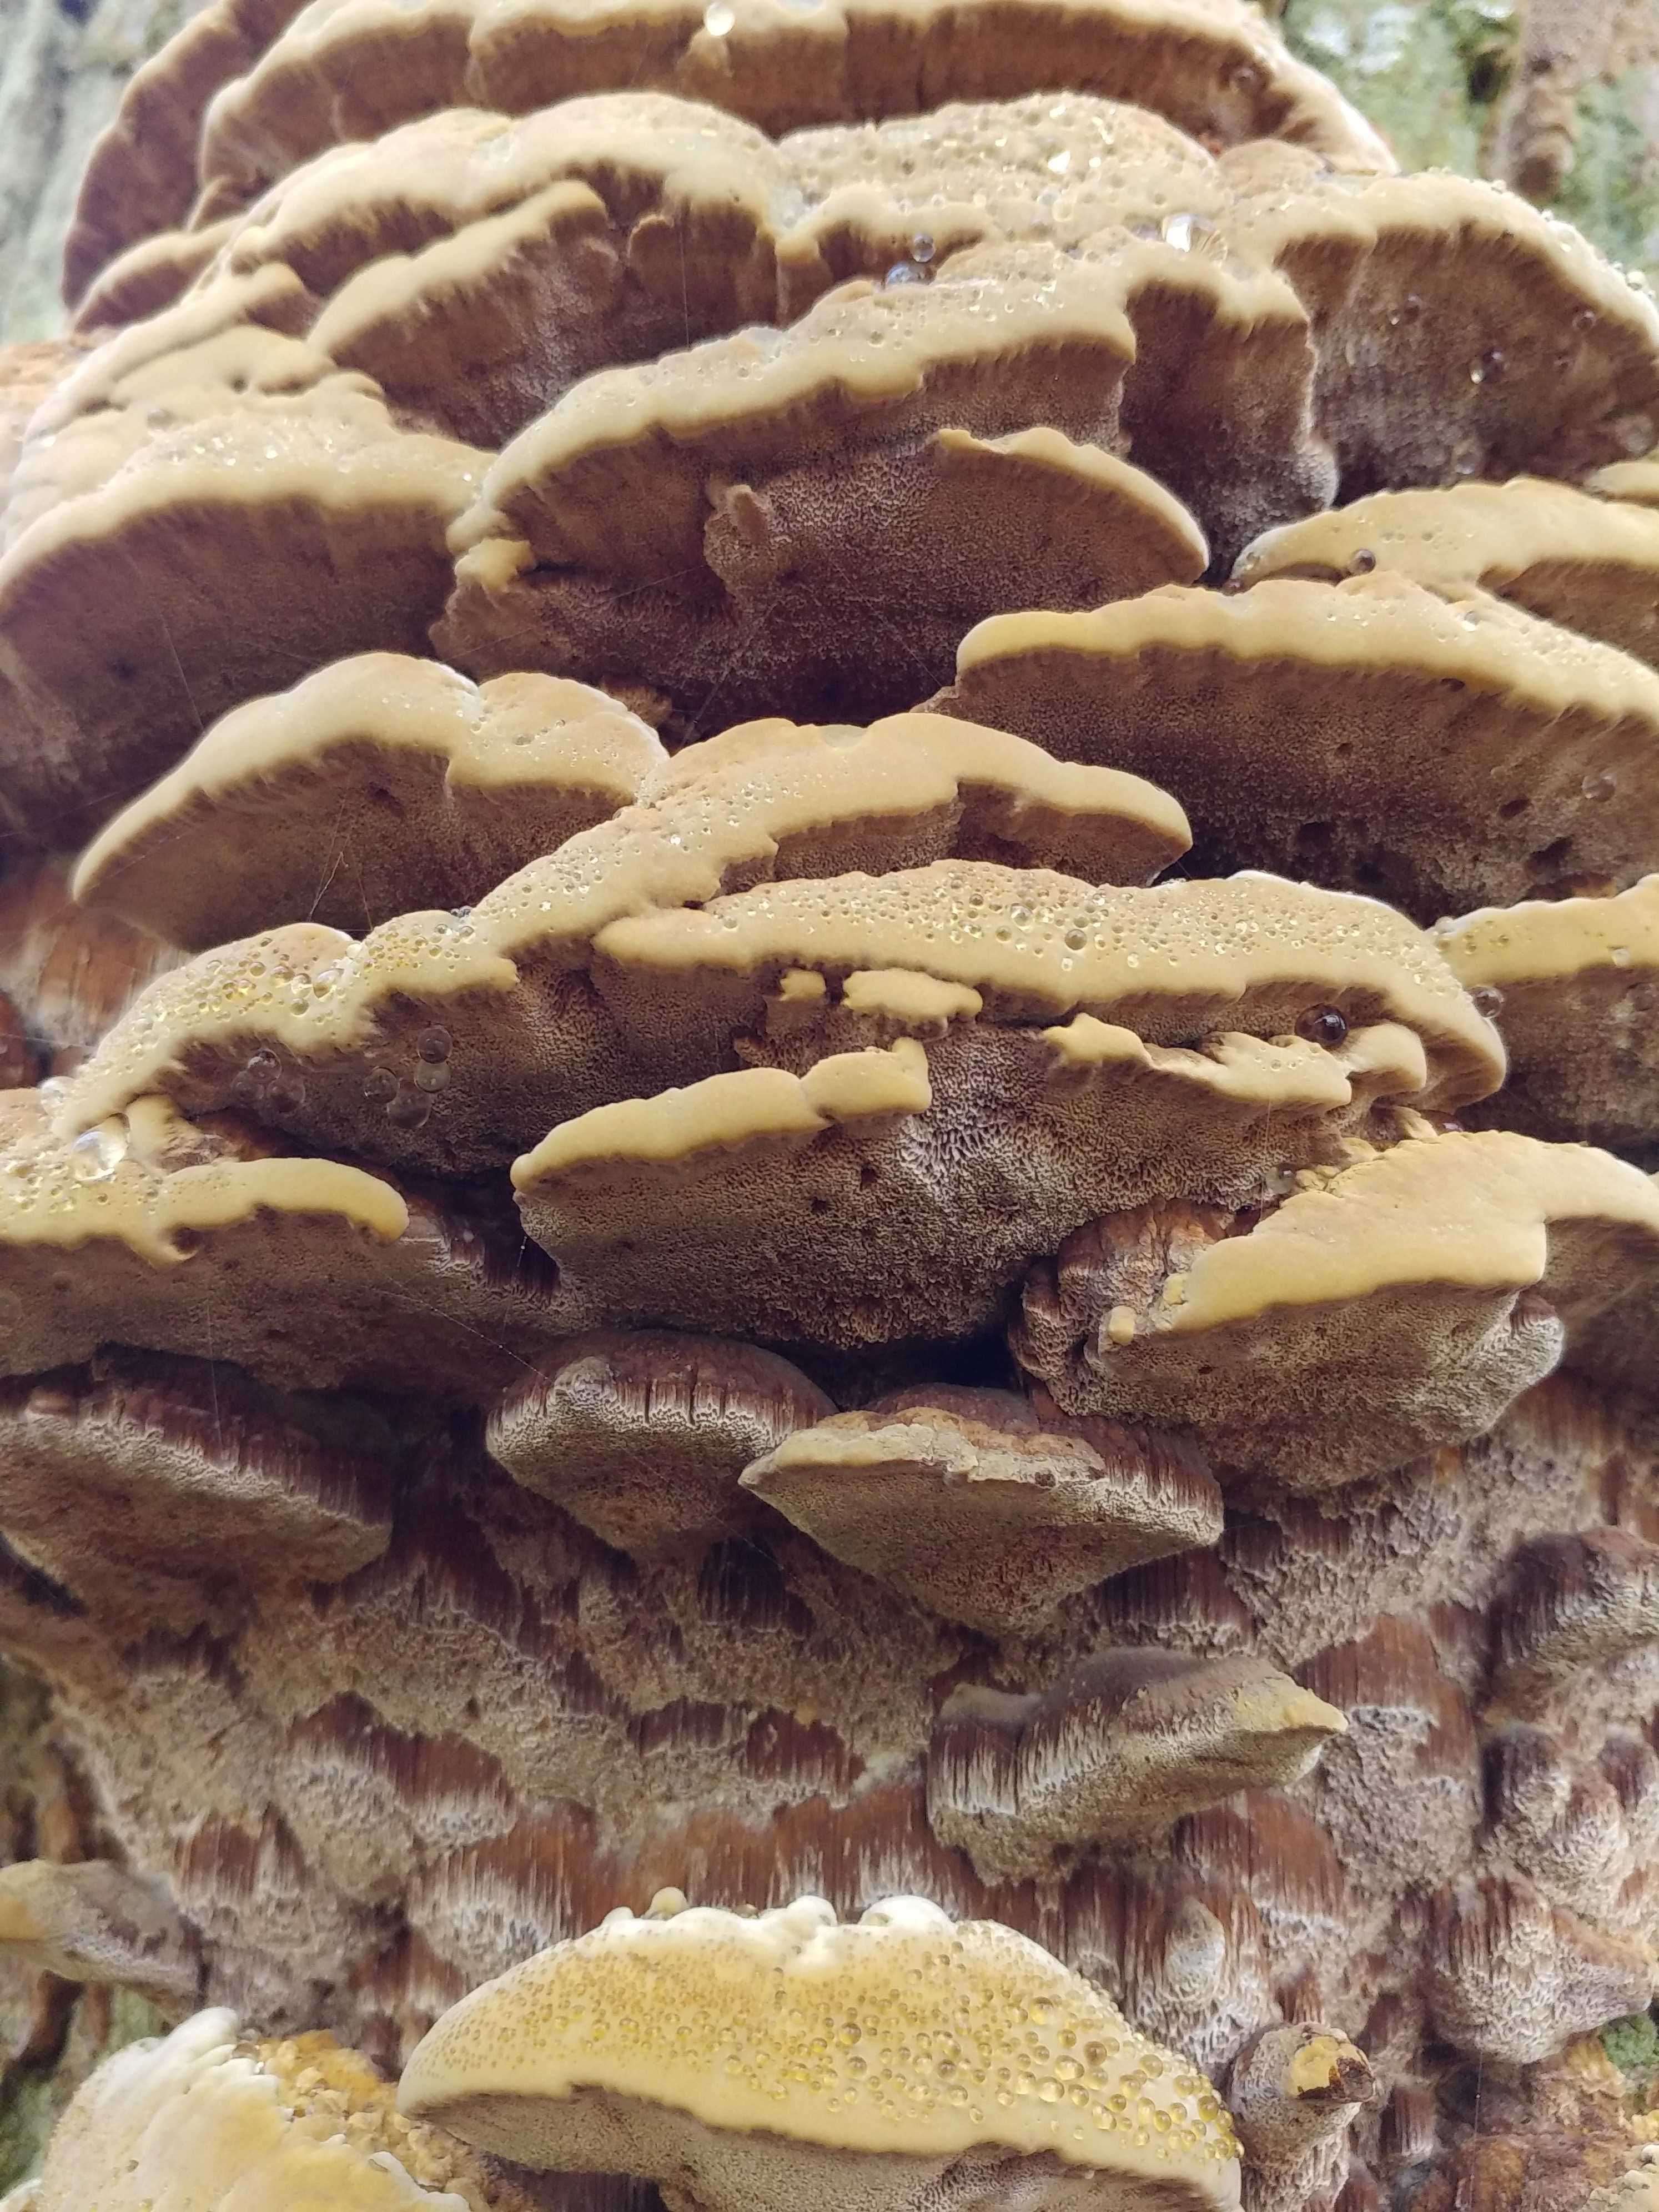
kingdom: Fungi
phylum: Basidiomycota
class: Agaricomycetes
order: Hymenochaetales
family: Hymenochaetaceae
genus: Xanthoporia
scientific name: Xanthoporia radiata
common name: elle-spejlporesvamp
